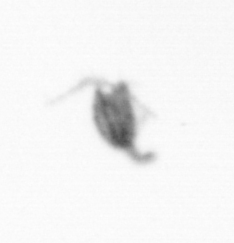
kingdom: Animalia
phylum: Arthropoda
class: Copepoda
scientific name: Copepoda
